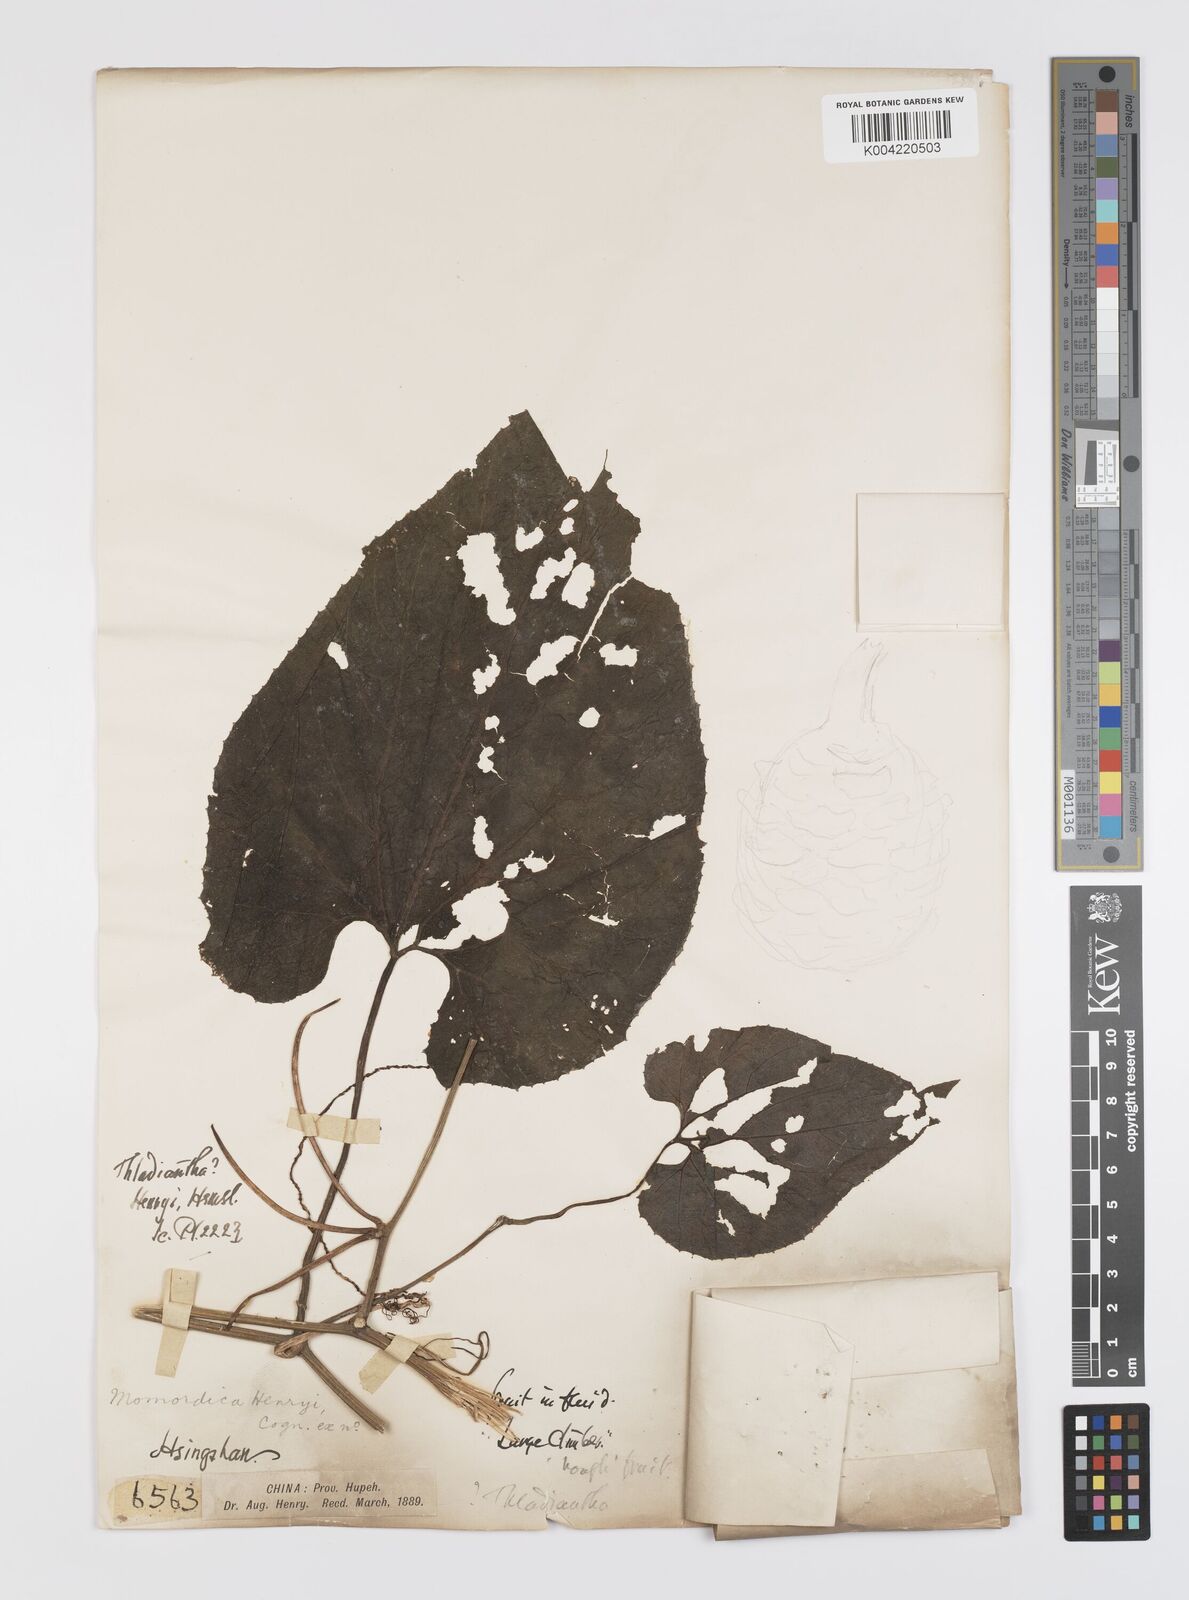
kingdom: Plantae
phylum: Tracheophyta
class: Magnoliopsida
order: Cucurbitales
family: Cucurbitaceae
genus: Thladiantha
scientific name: Thladiantha henryi
